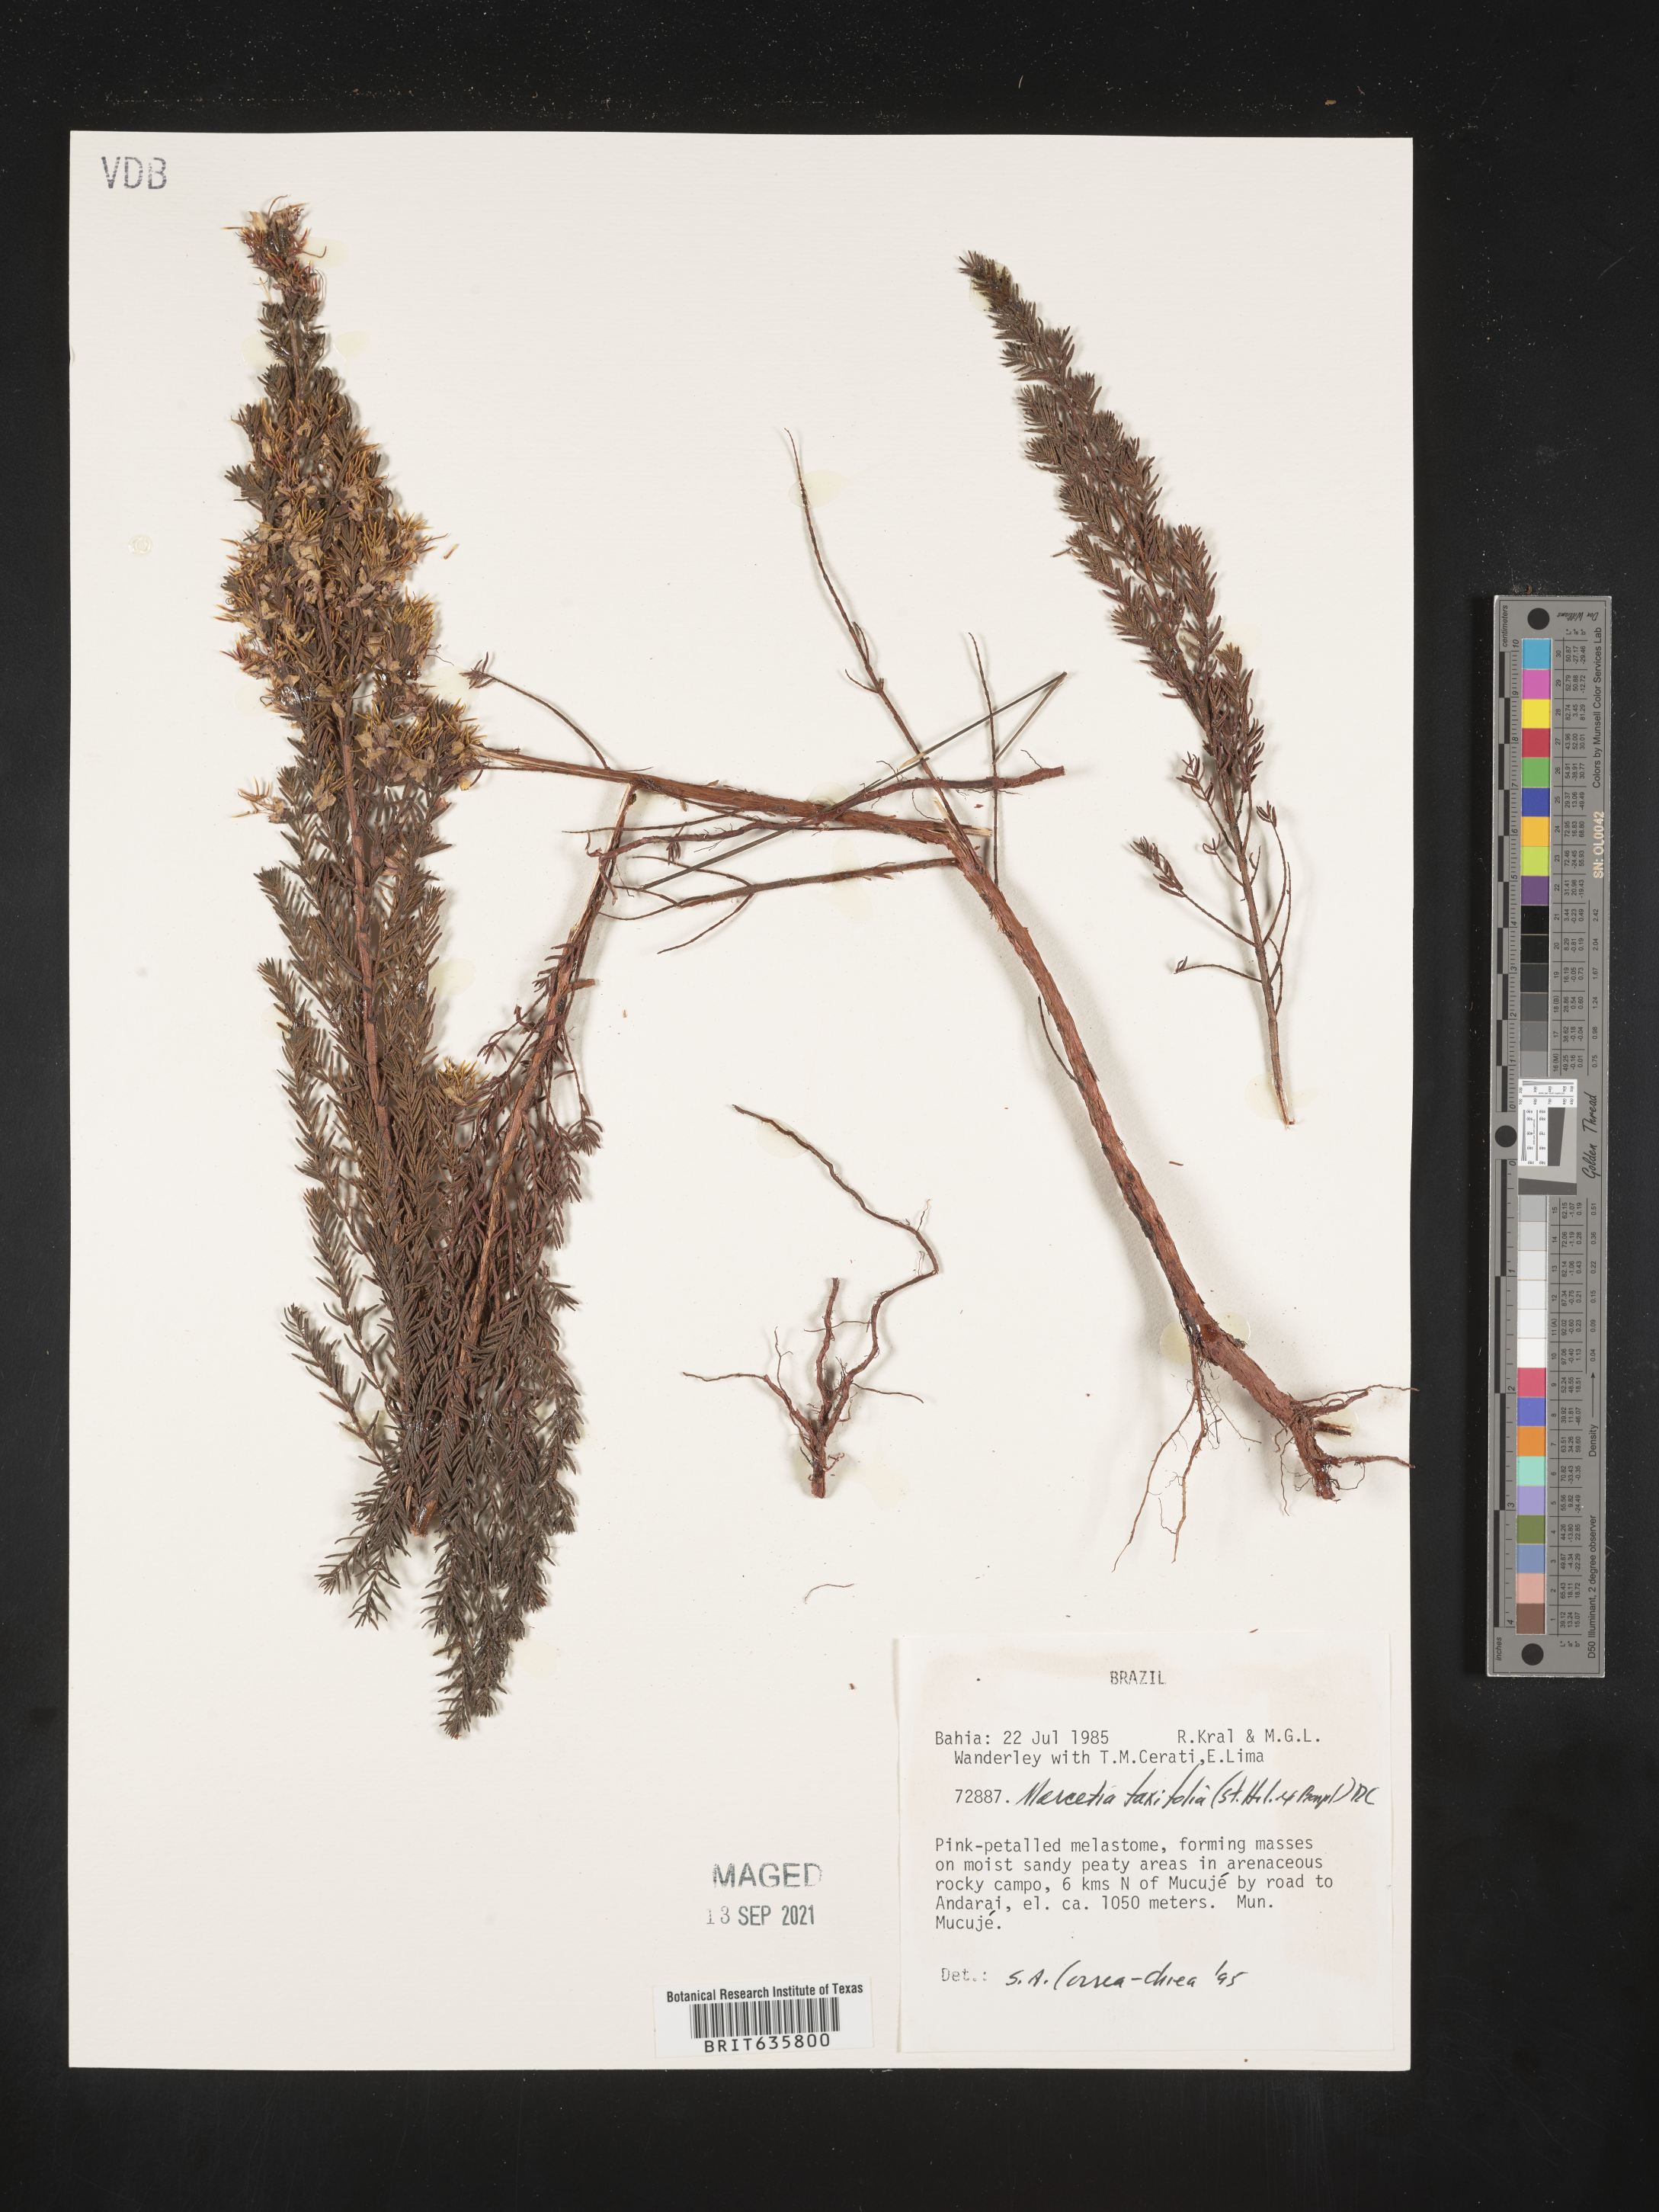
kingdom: Plantae
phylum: Tracheophyta
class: Magnoliopsida
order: Myrtales
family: Melastomataceae
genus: Marcetia
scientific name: Marcetia
